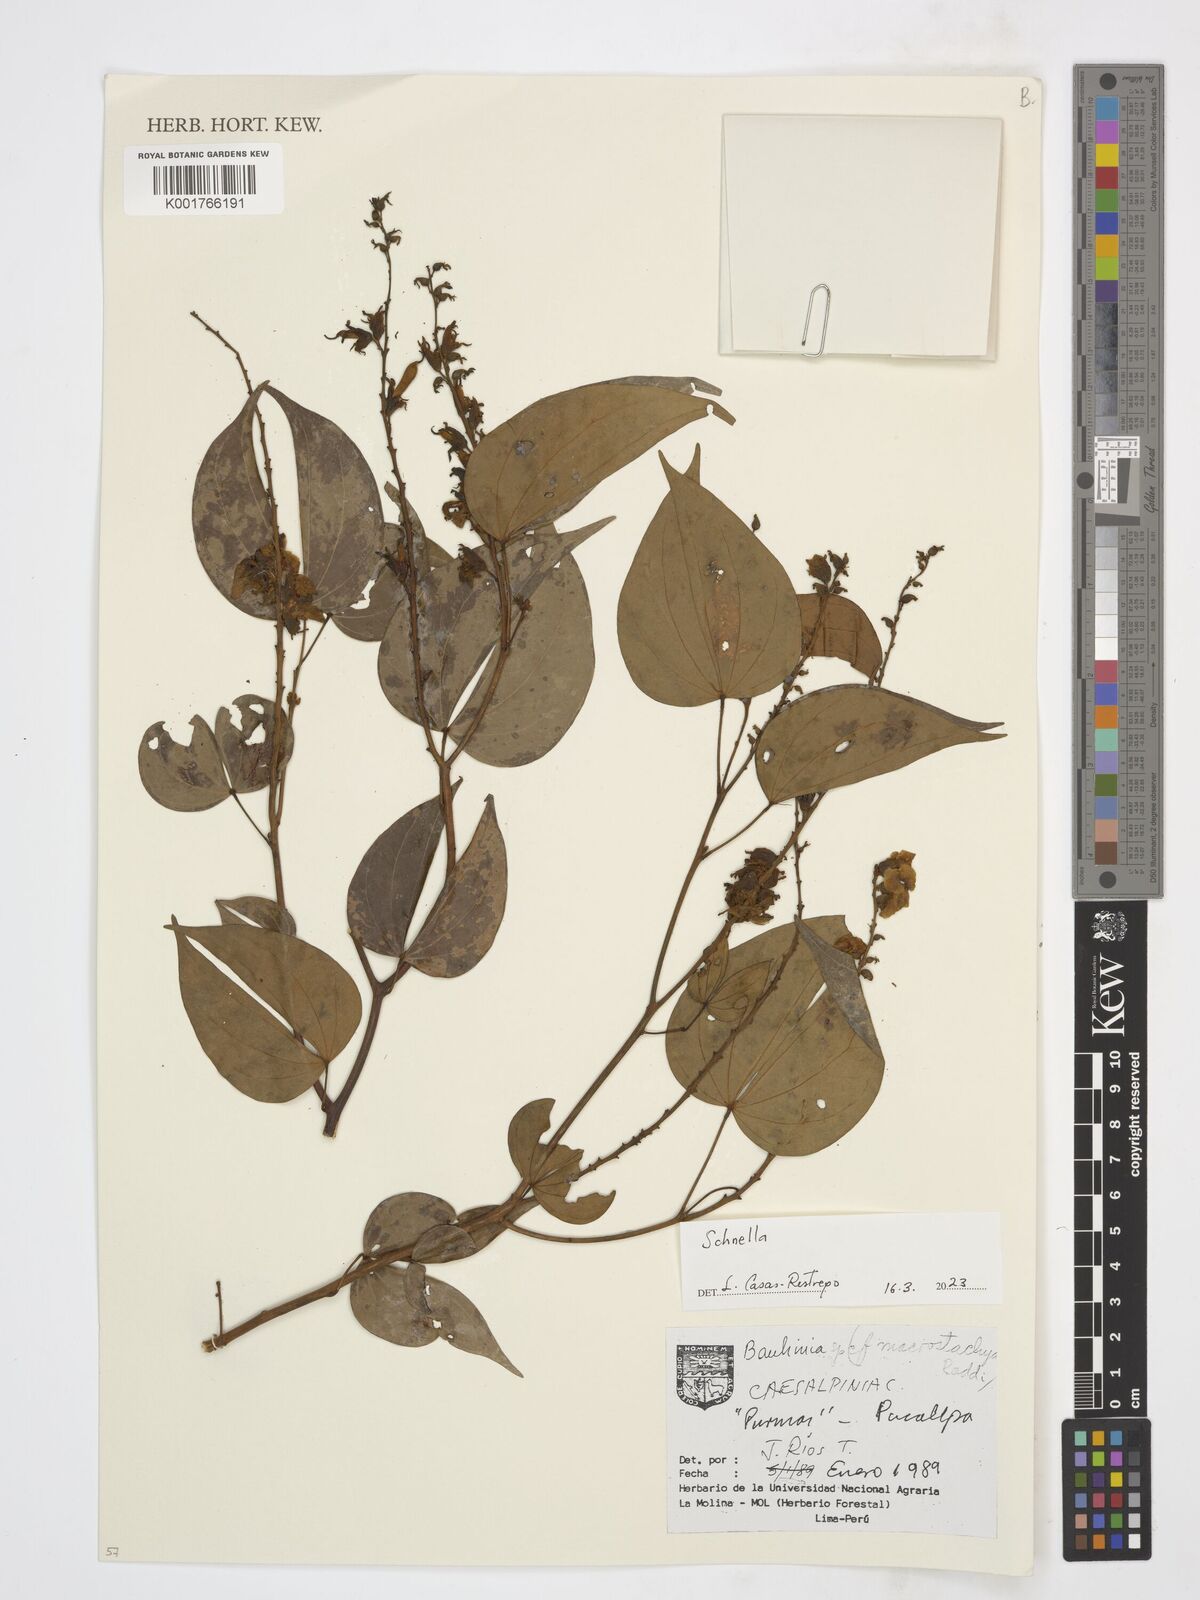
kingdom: Plantae
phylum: Tracheophyta
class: Magnoliopsida
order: Fabales
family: Fabaceae
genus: Schnella
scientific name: Schnella
